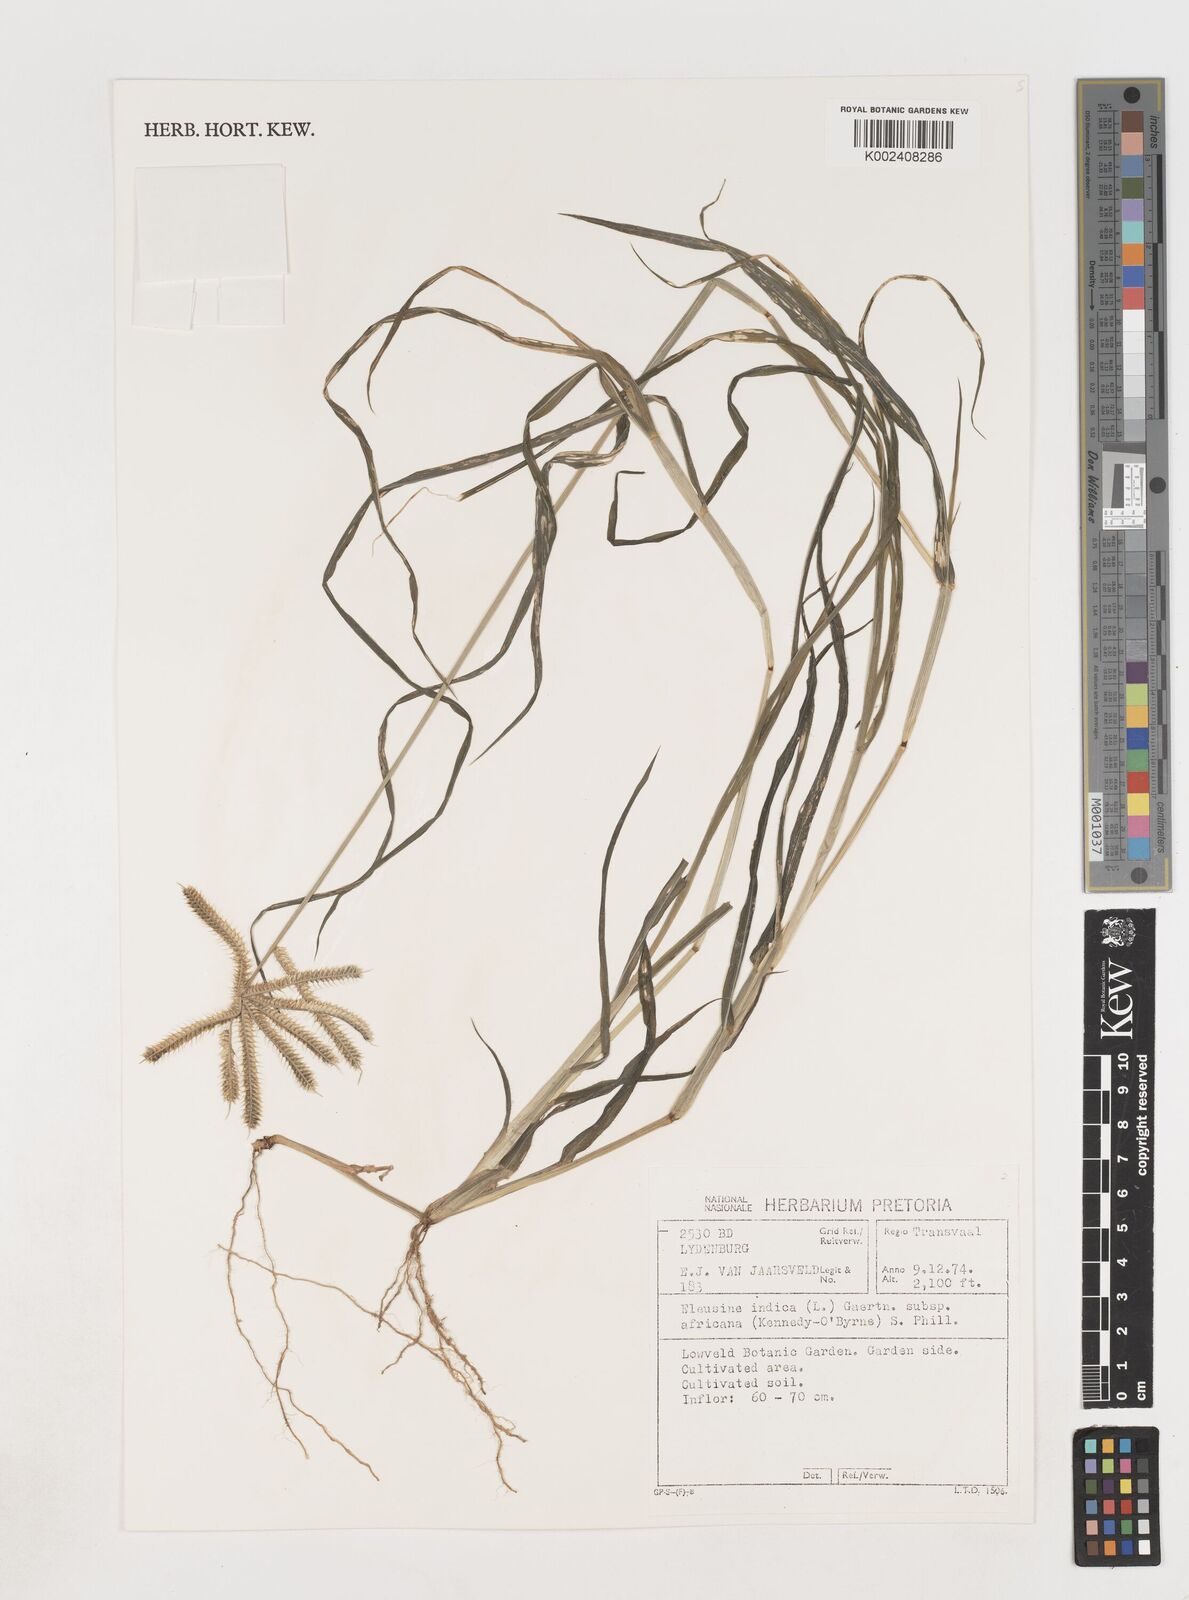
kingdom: Plantae
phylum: Tracheophyta
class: Liliopsida
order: Poales
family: Poaceae
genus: Eleusine
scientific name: Eleusine africana
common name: Wild african finger millet
